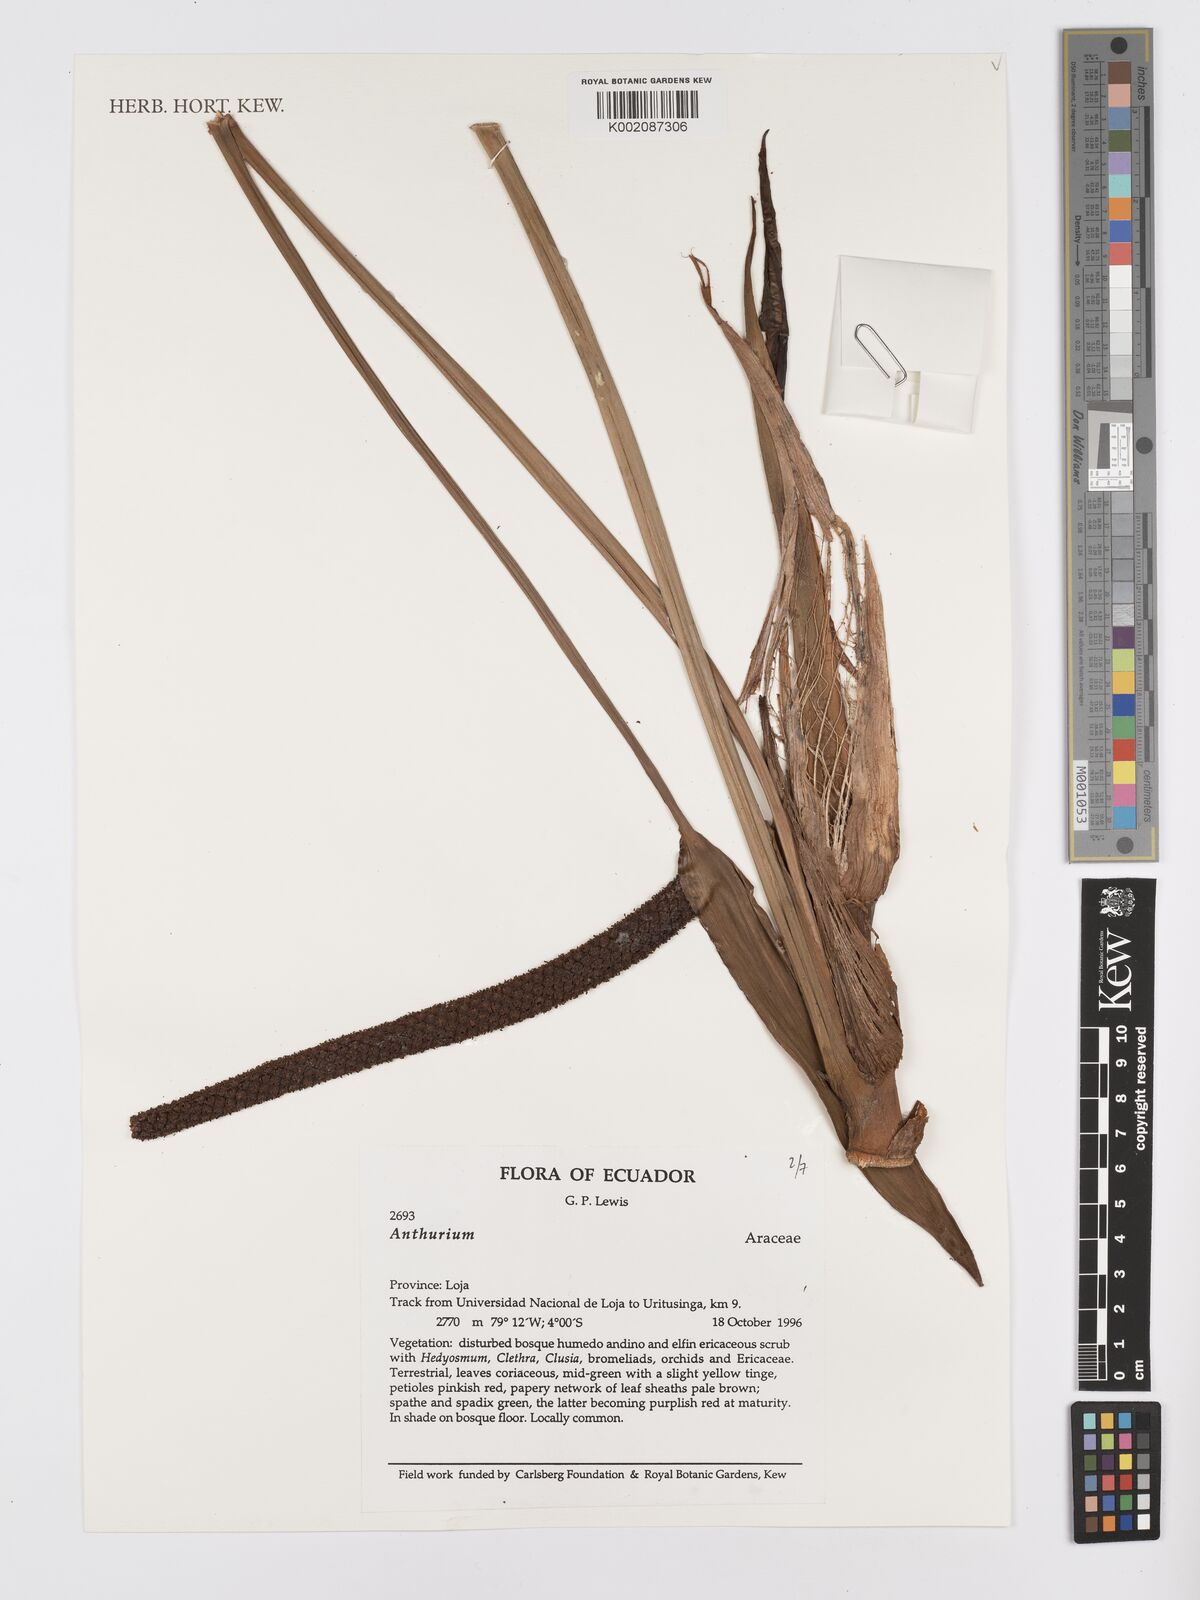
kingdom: Plantae
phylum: Tracheophyta
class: Liliopsida
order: Alismatales
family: Araceae
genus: Anthurium
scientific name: Anthurium
